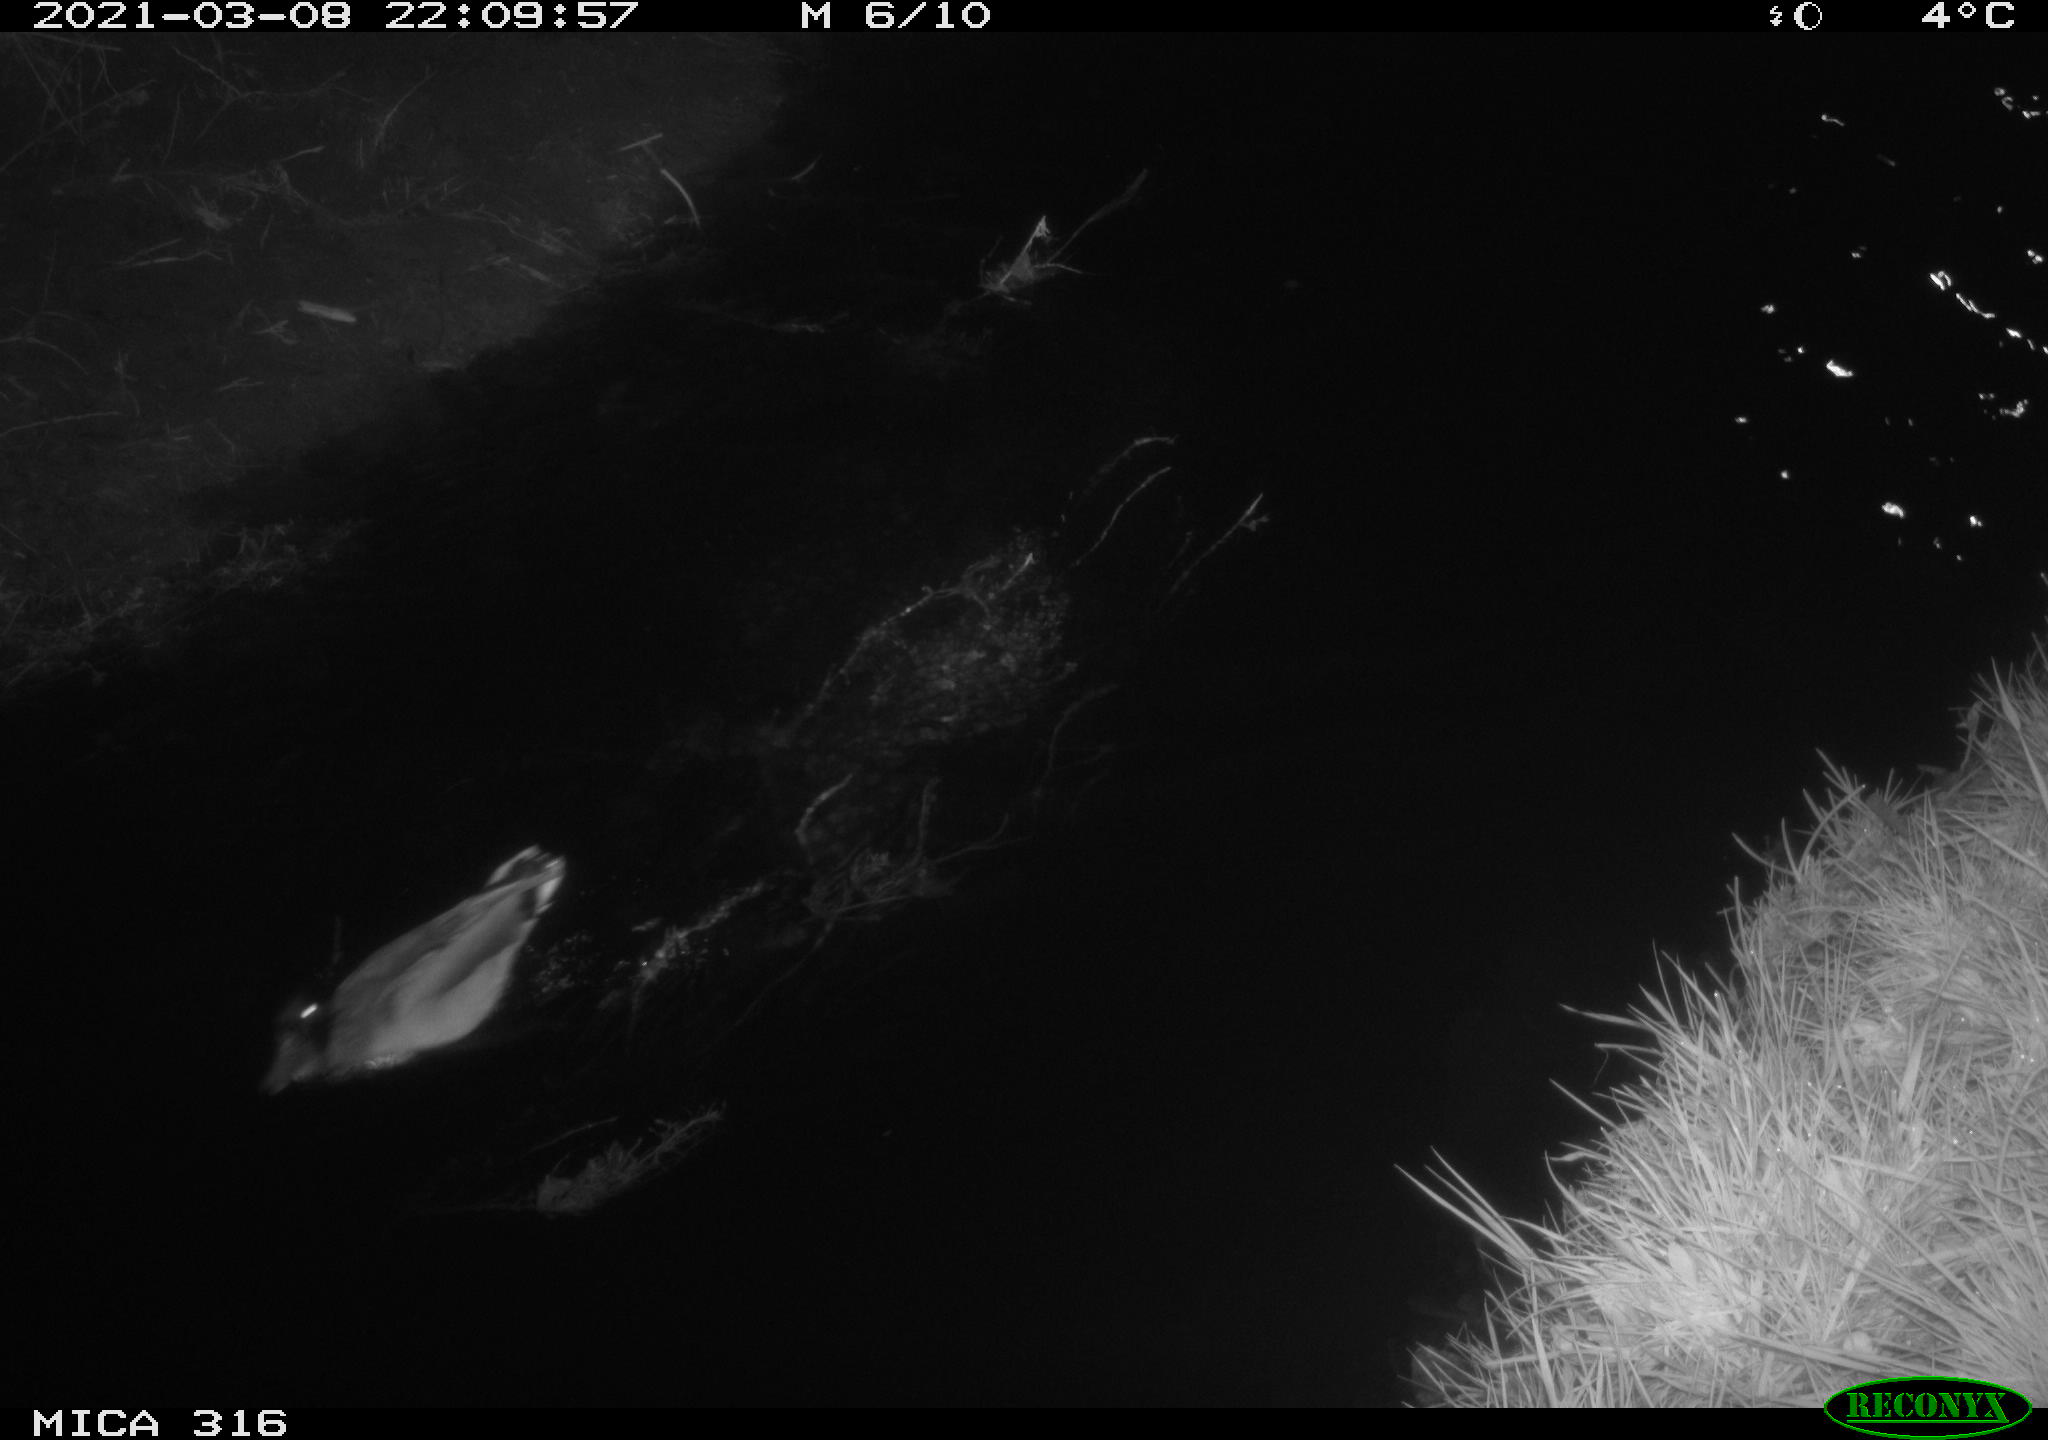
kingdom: Animalia
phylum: Chordata
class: Aves
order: Anseriformes
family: Anatidae
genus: Anas
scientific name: Anas platyrhynchos
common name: Mallard
